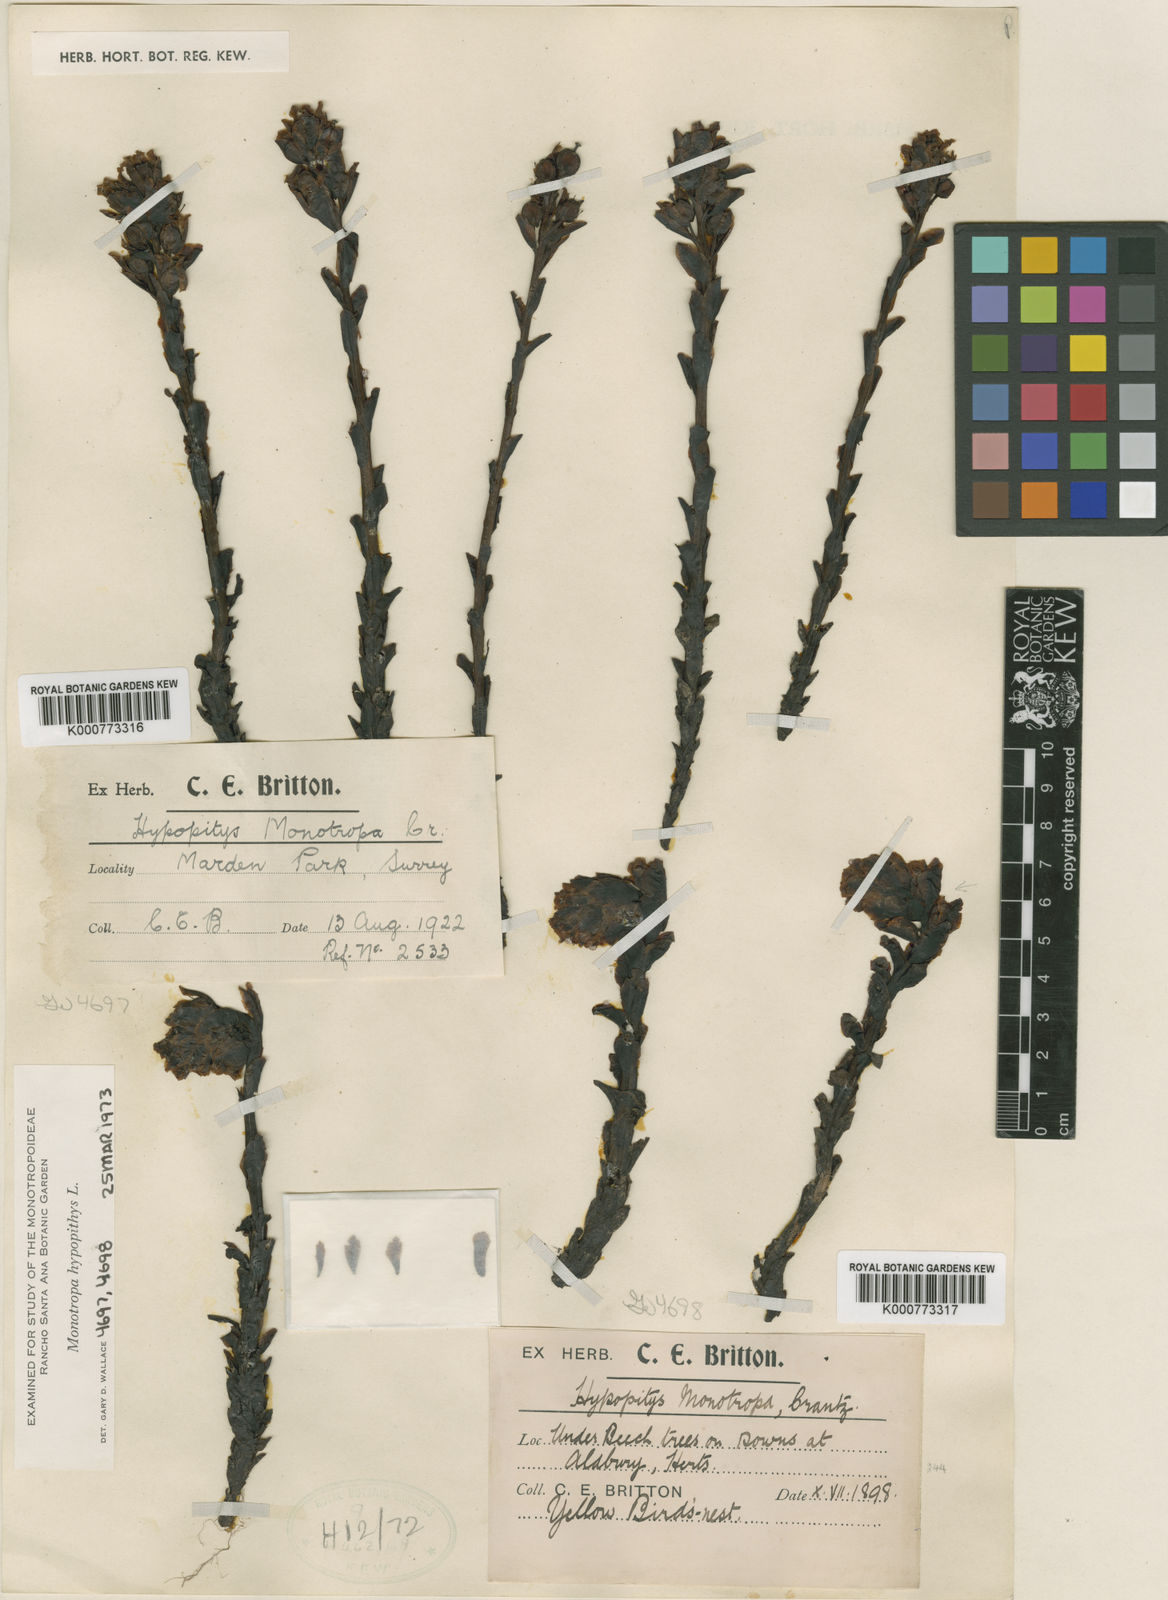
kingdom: Plantae
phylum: Tracheophyta
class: Magnoliopsida
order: Ericales
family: Ericaceae
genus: Monotropa
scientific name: Monotropa
